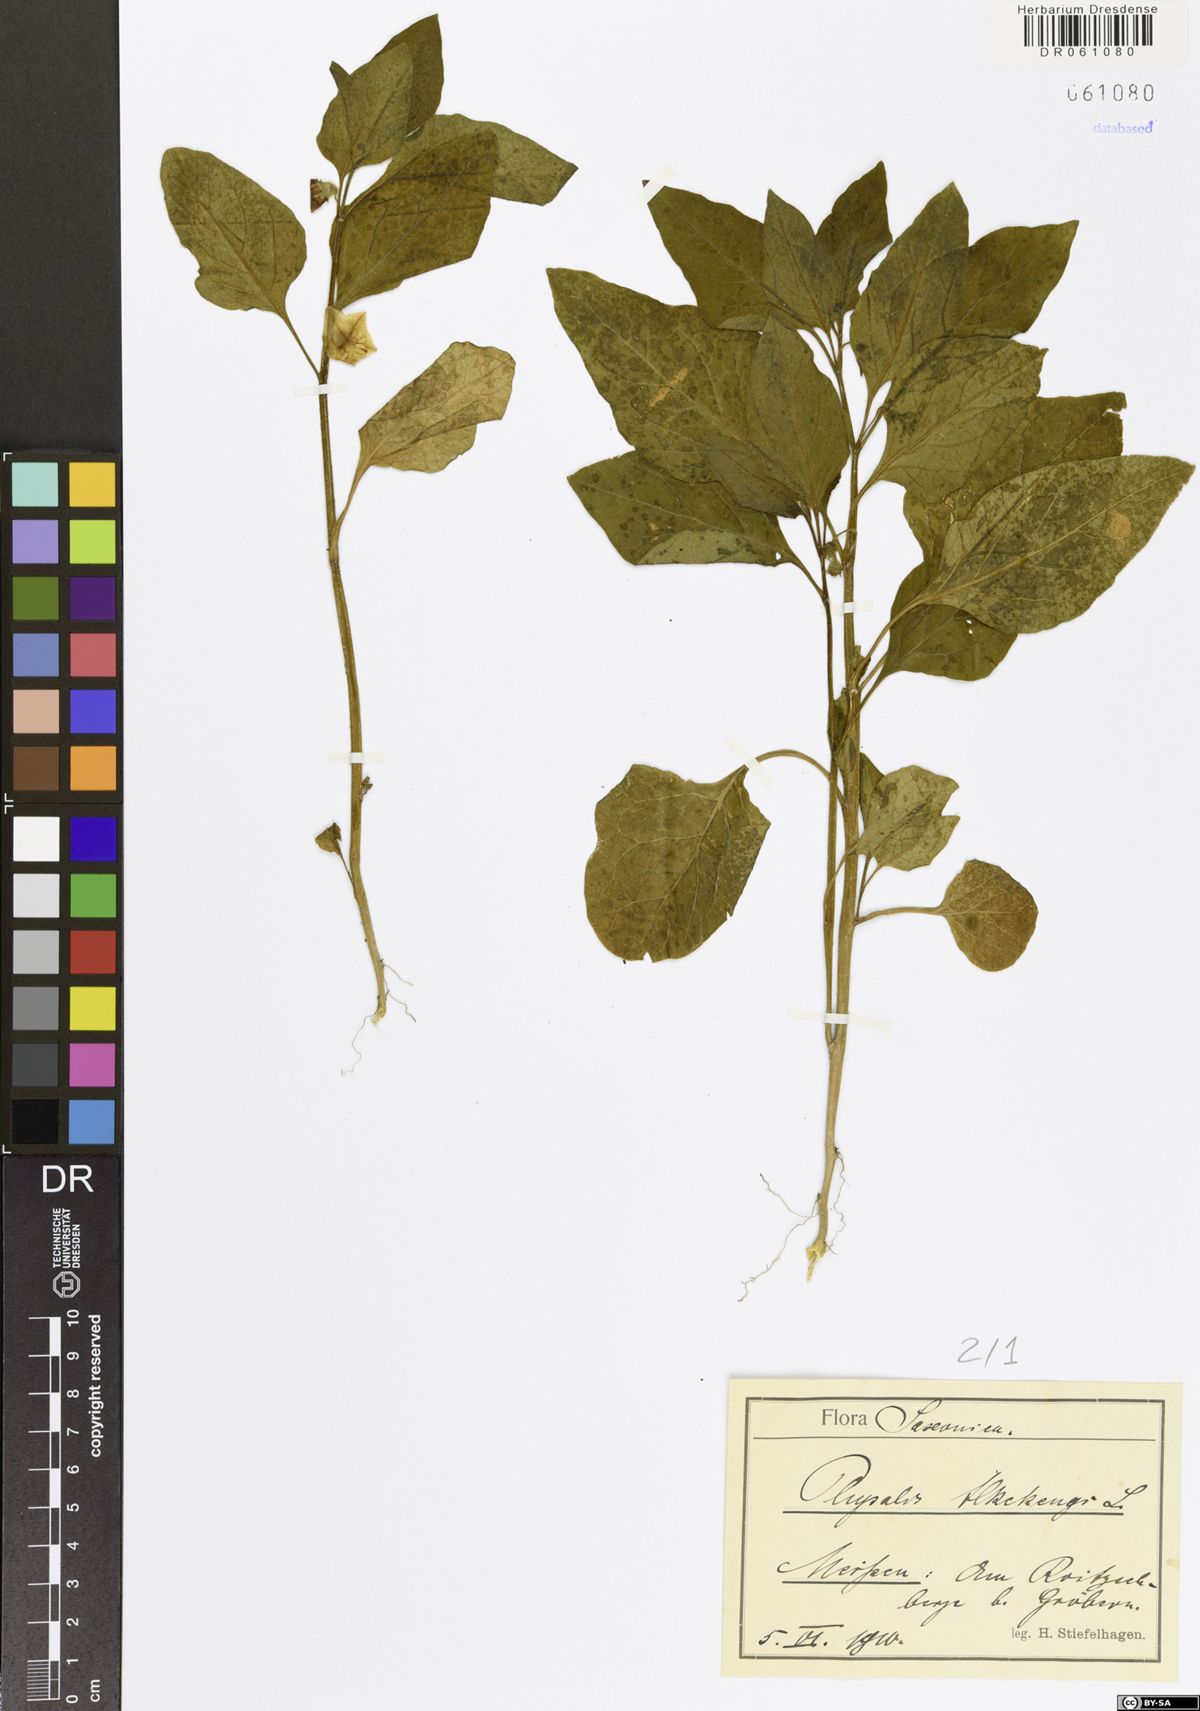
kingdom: Plantae
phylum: Tracheophyta
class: Magnoliopsida
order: Solanales
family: Solanaceae
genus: Alkekengi
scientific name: Alkekengi officinarum
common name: Japanese-lantern
